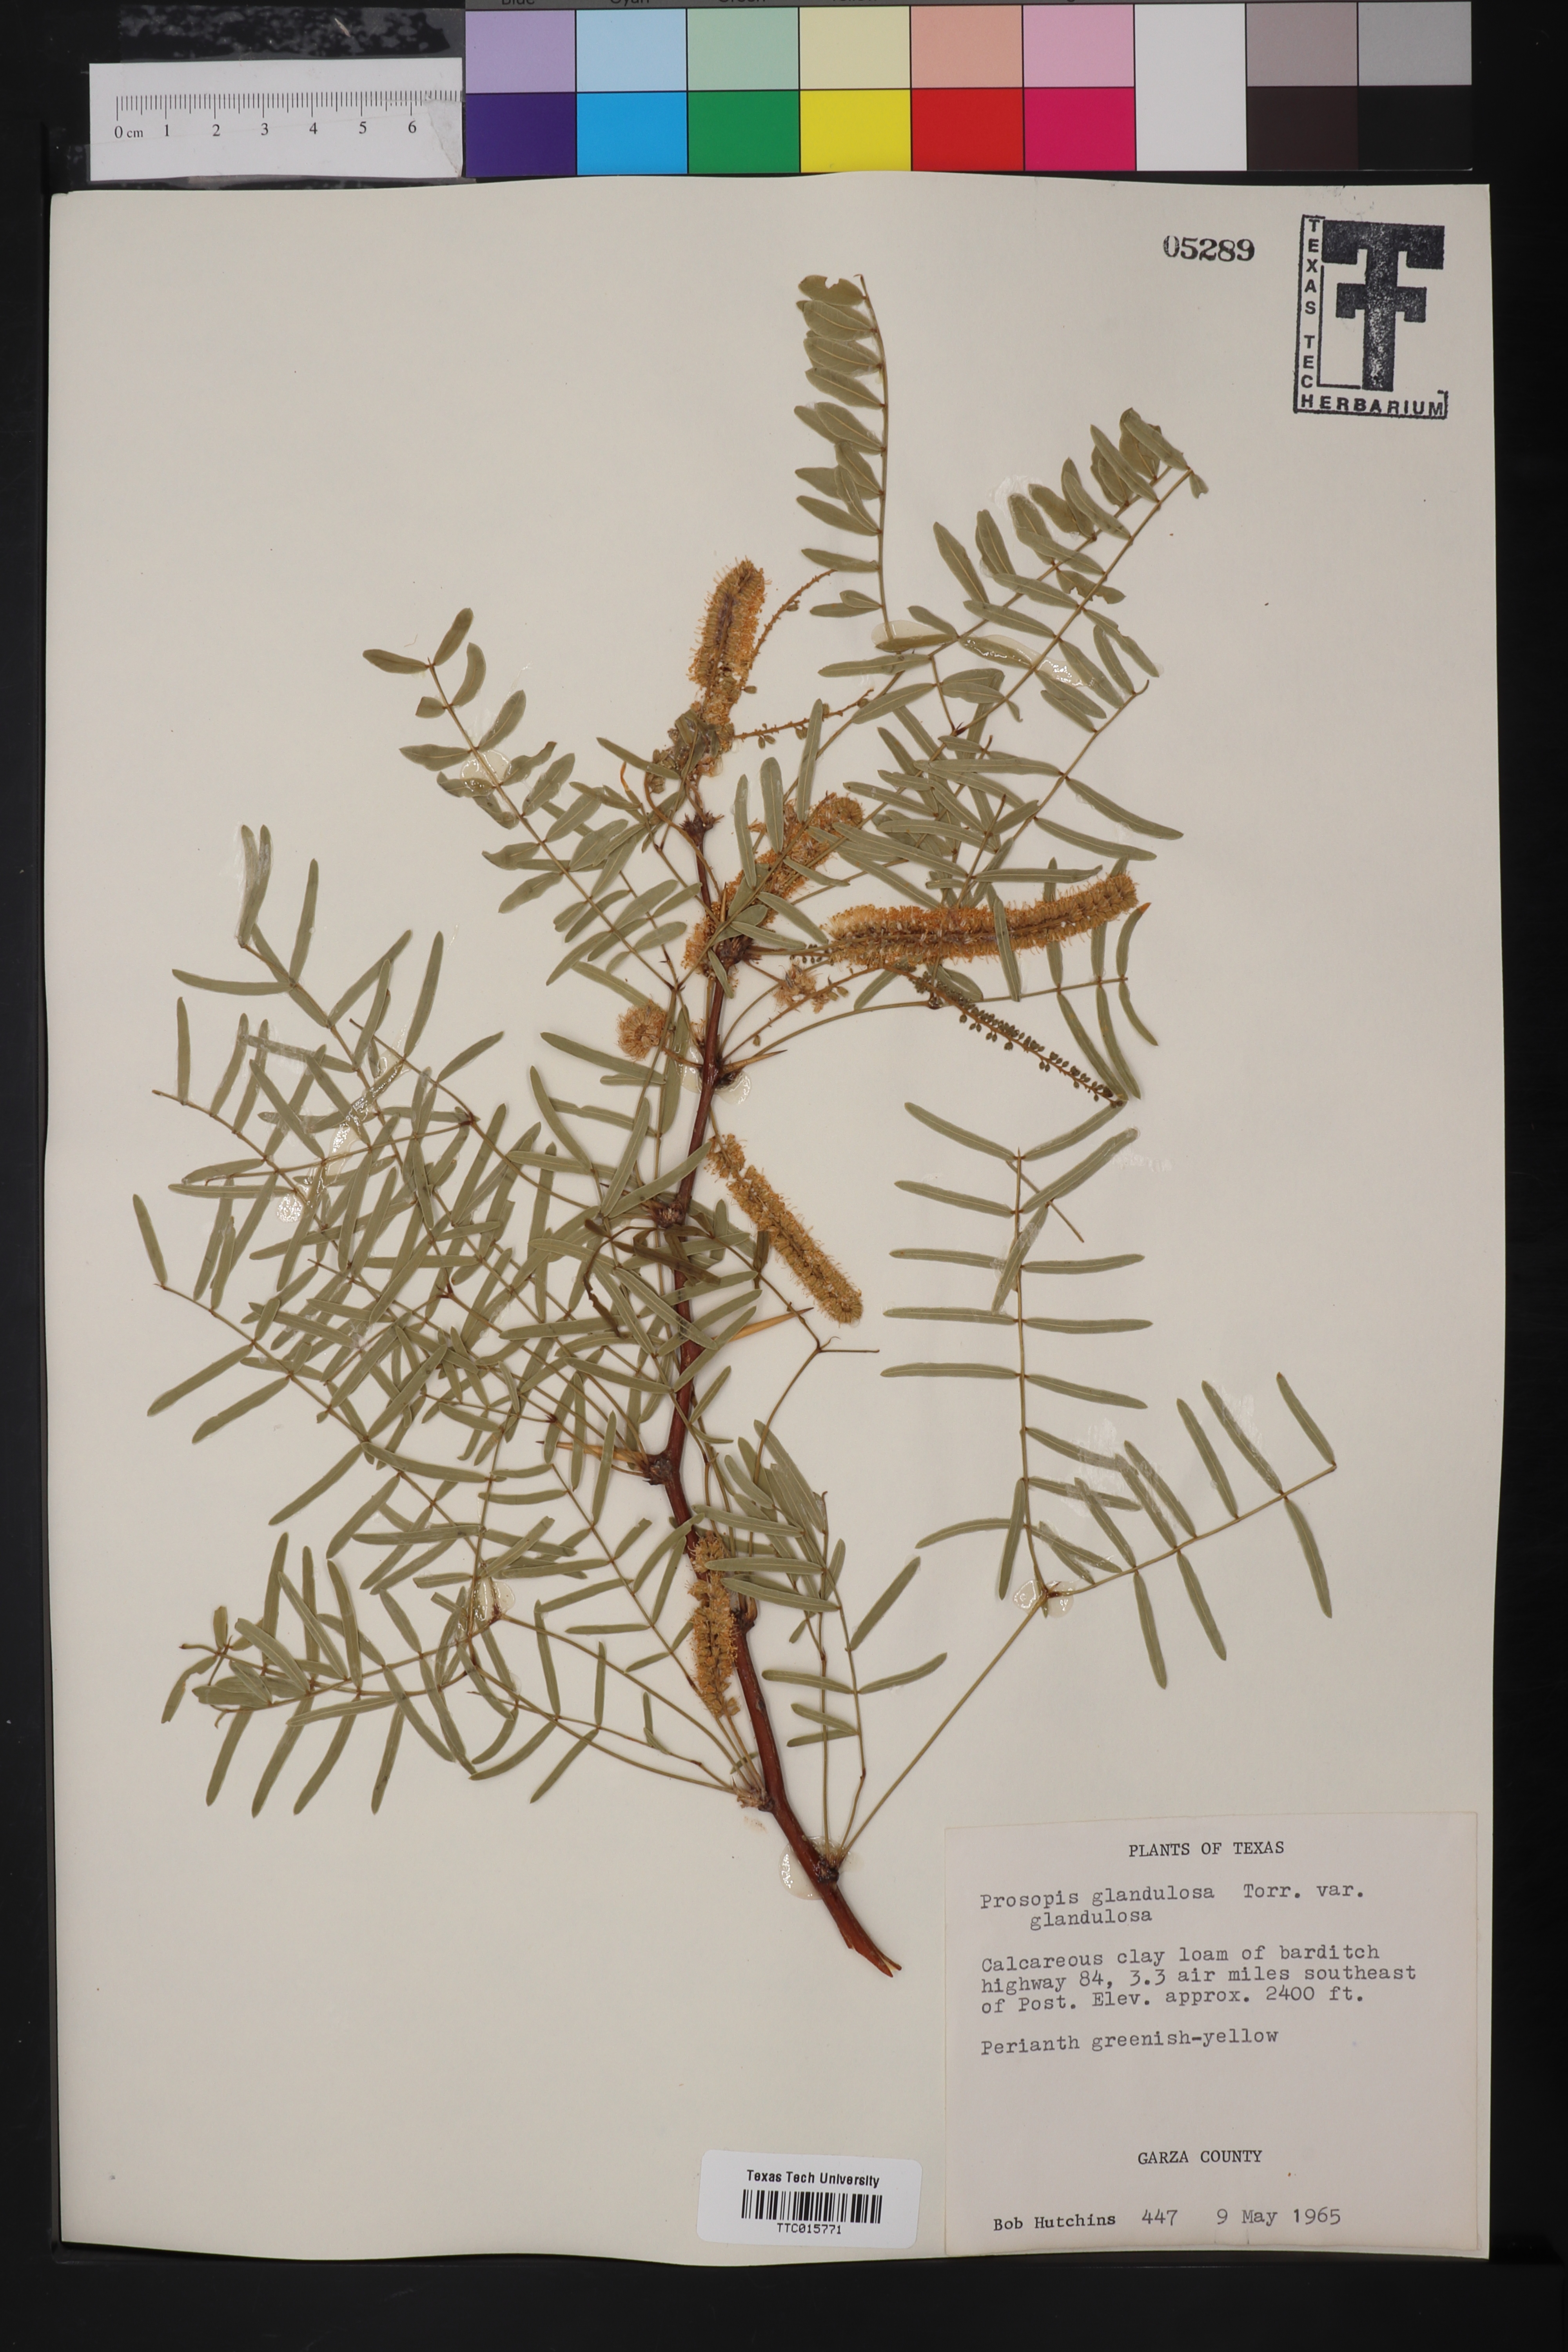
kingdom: Plantae
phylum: Tracheophyta
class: Magnoliopsida
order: Fabales
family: Fabaceae
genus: Prosopis
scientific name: Prosopis glandulosa
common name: Honey mesquite
